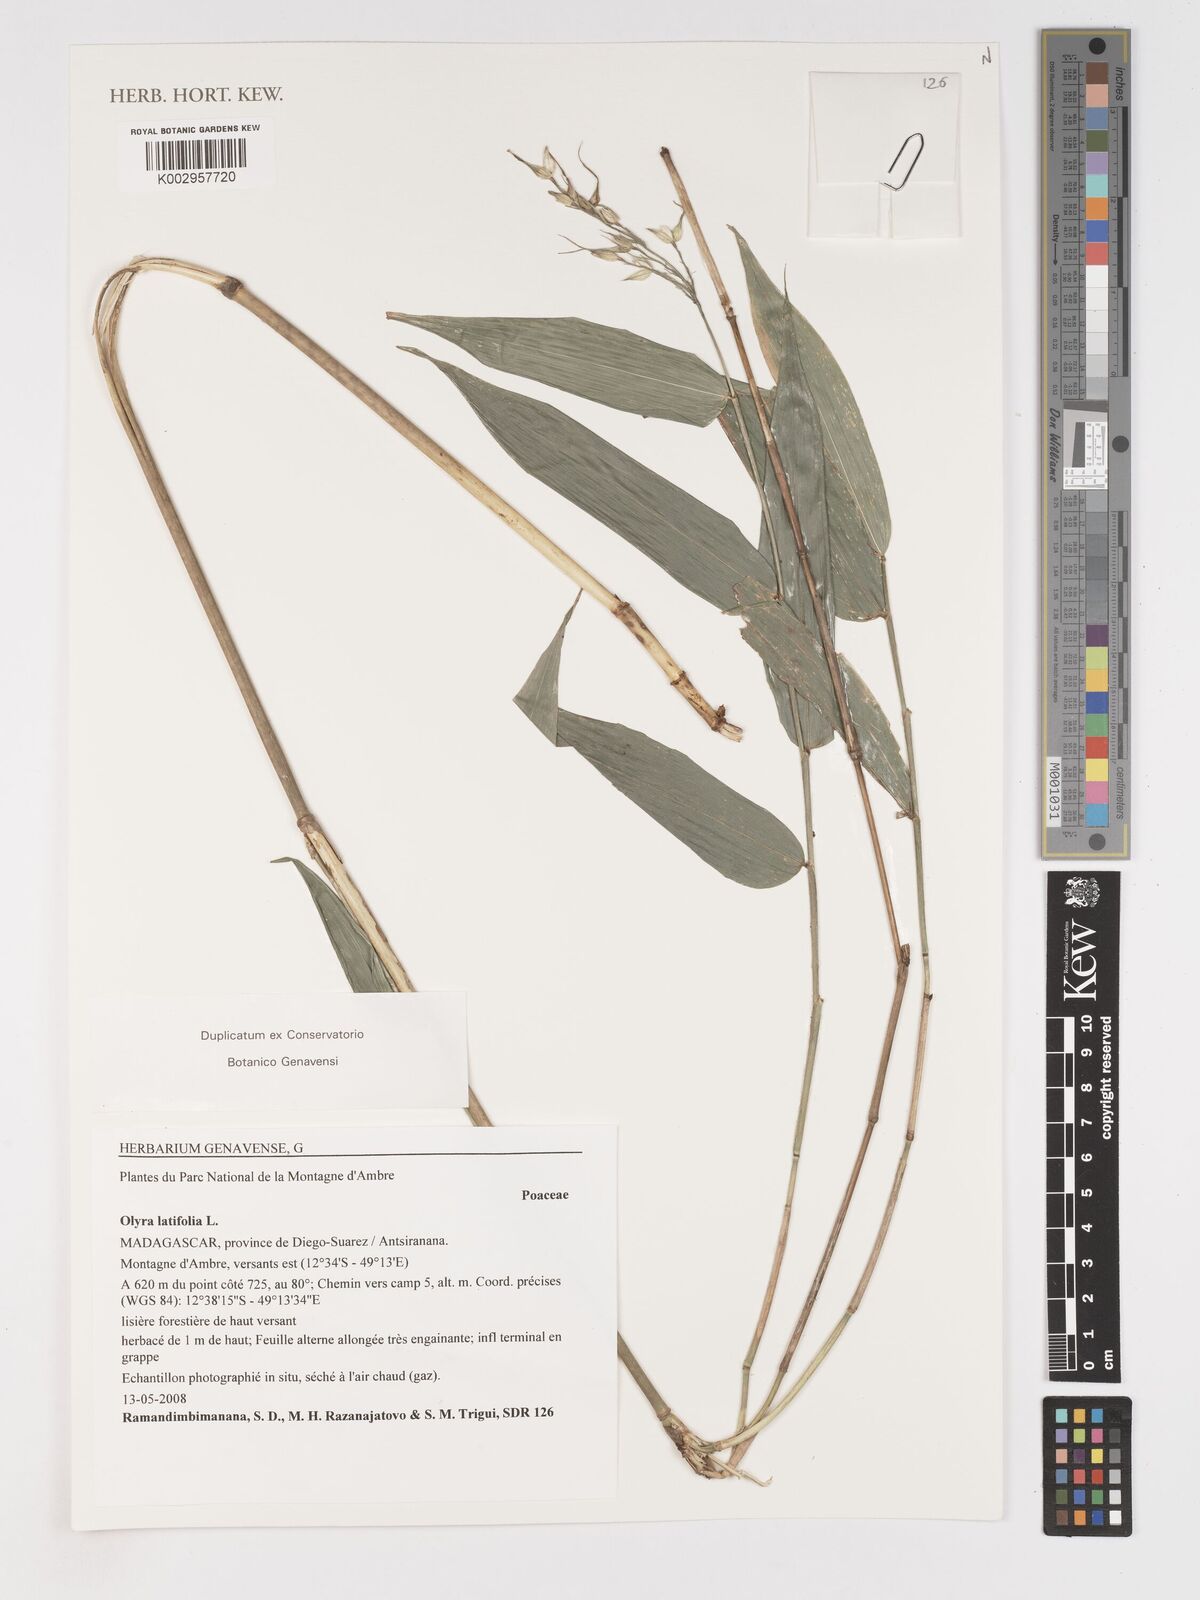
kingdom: Plantae
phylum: Tracheophyta
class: Liliopsida
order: Poales
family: Poaceae
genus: Olyra
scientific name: Olyra latifolia
